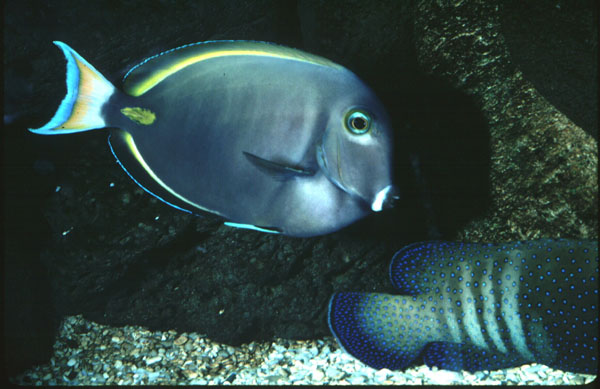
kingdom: Animalia
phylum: Chordata
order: Perciformes
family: Acanthuridae
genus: Acanthurus
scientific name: Acanthurus nigricans
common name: Whitecheek surgeonfish
